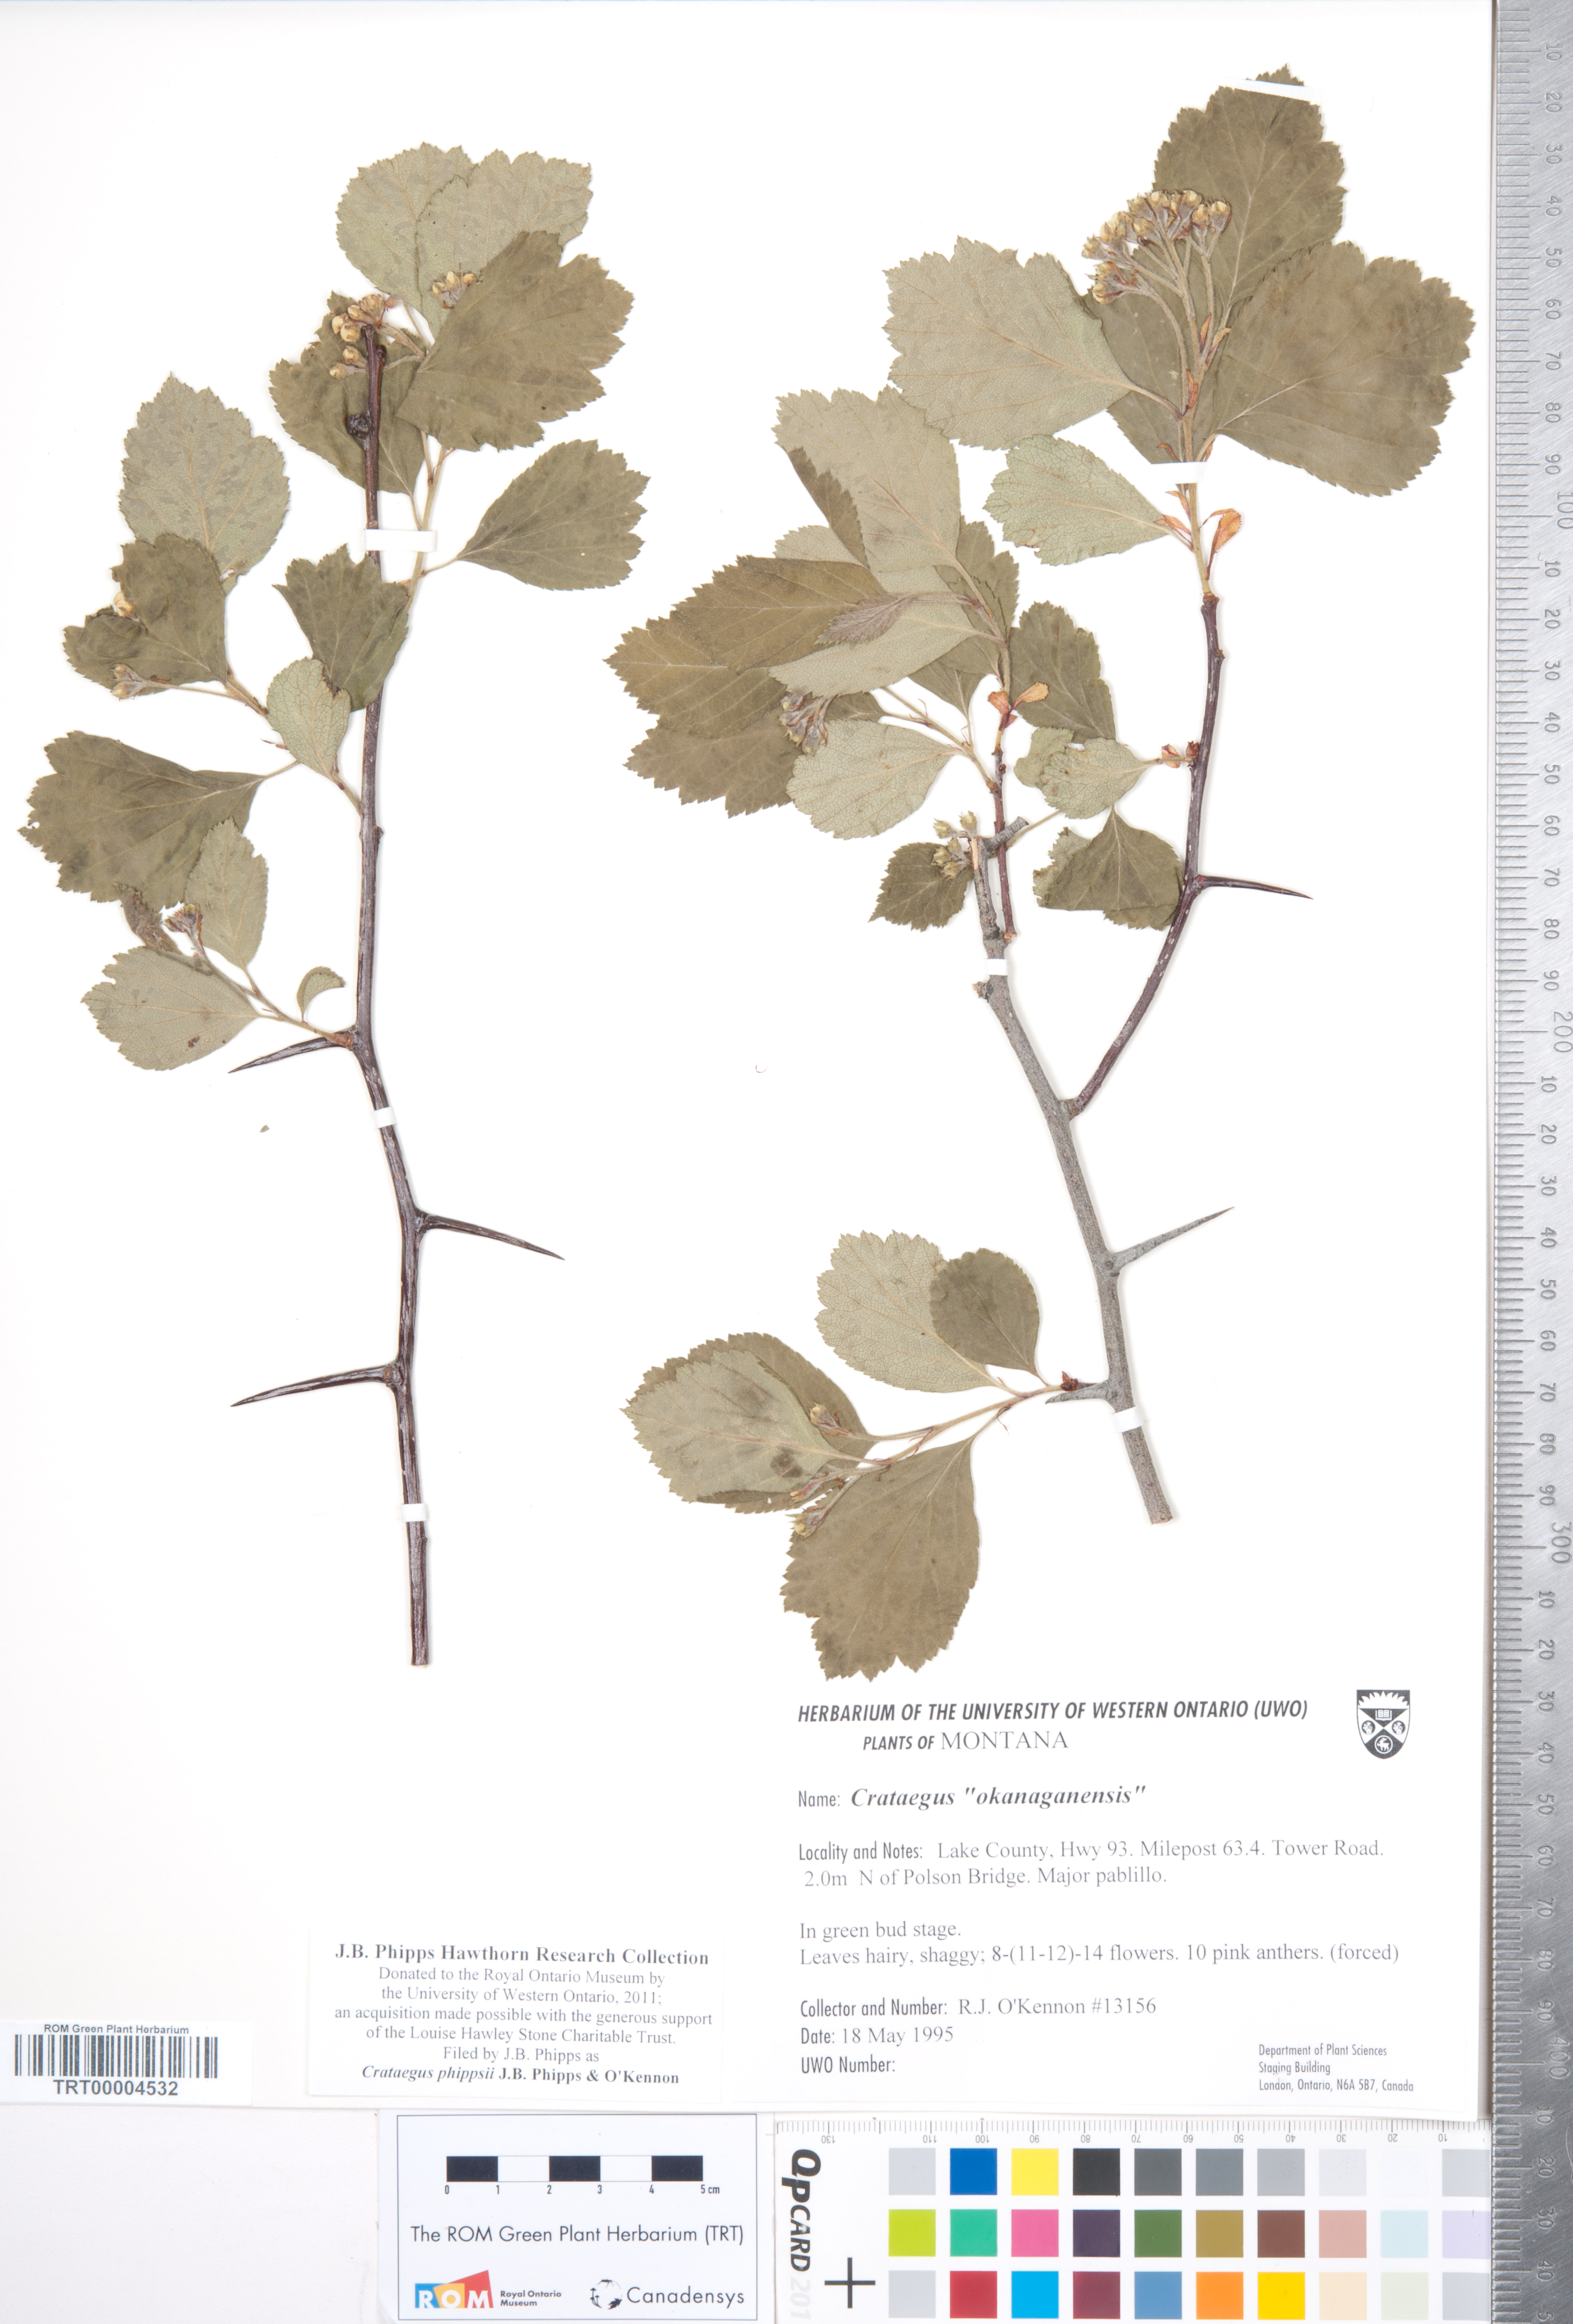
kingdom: Plantae
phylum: Tracheophyta
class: Magnoliopsida
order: Rosales
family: Rosaceae
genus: Crataegus
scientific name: Crataegus phippsii
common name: Phipps' hawthorn
